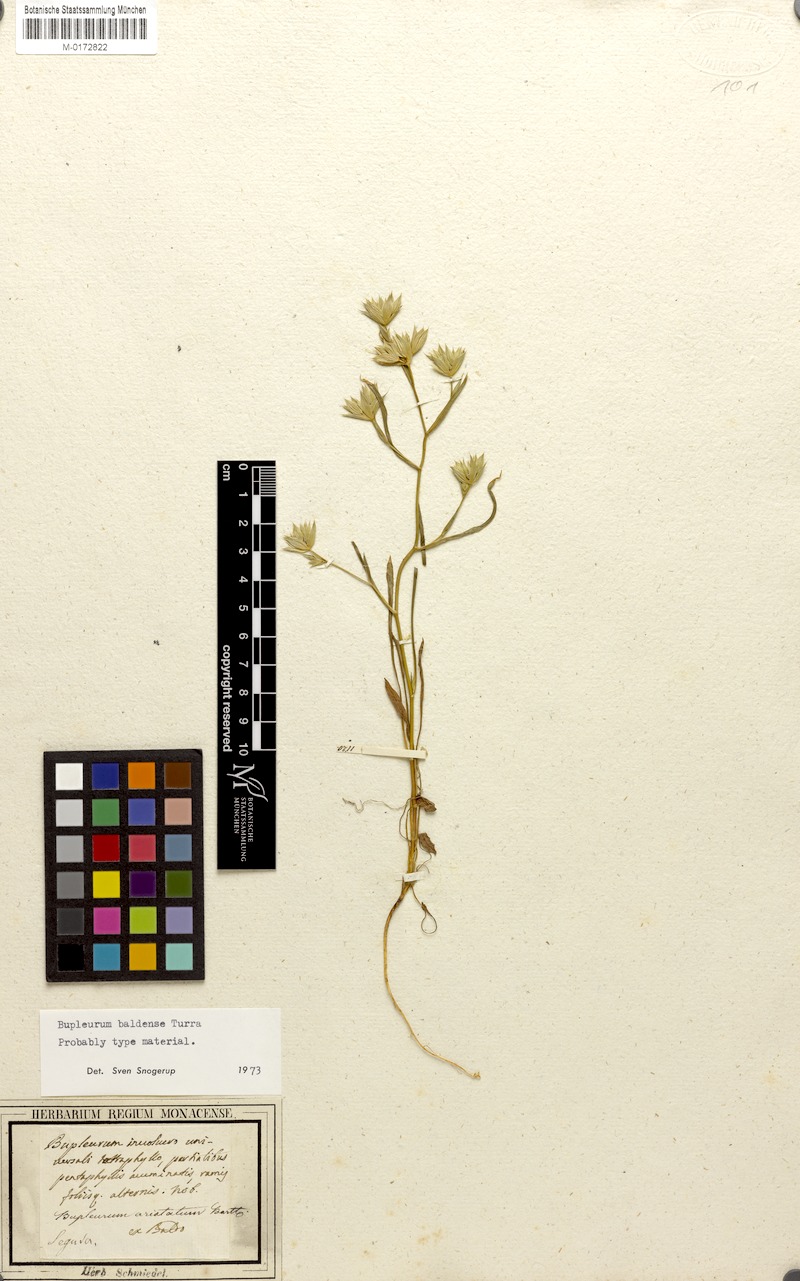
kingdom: Plantae
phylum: Tracheophyta
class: Magnoliopsida
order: Apiales
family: Apiaceae
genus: Bupleurum
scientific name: Bupleurum baldense
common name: Small hare's-ear
